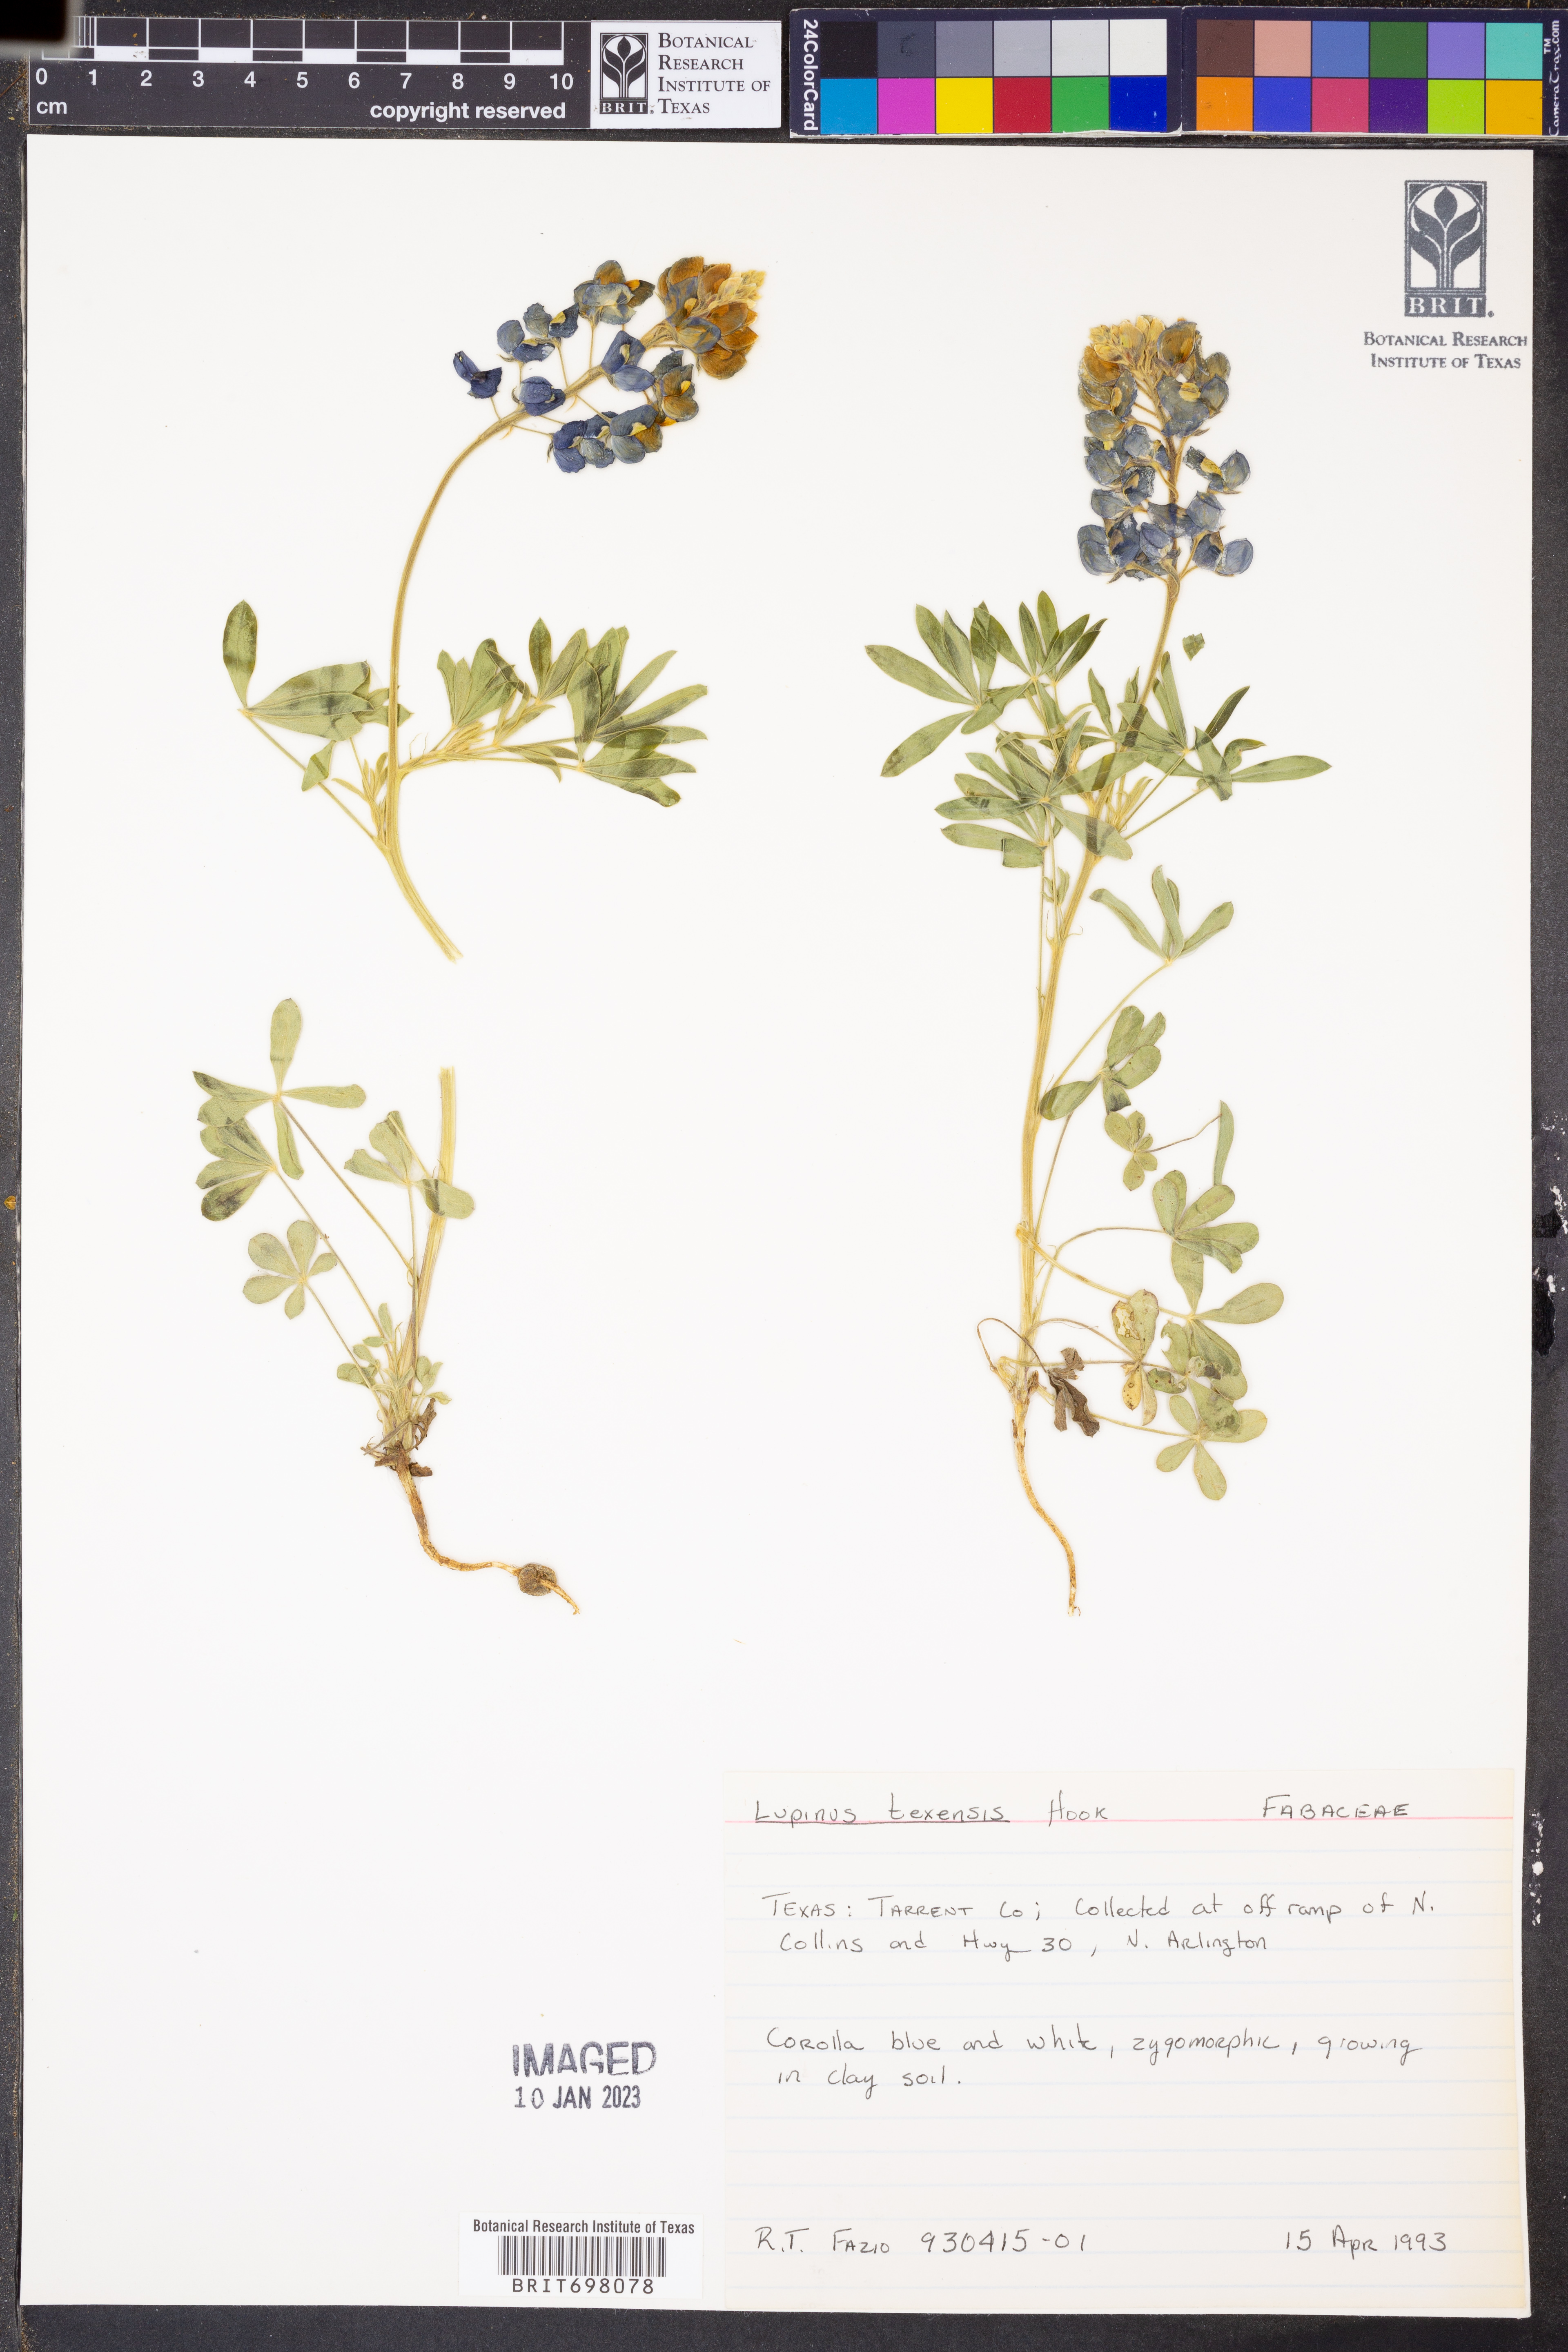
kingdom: Plantae
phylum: Tracheophyta
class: Magnoliopsida
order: Fabales
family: Fabaceae
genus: Lupinus
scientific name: Lupinus texensis
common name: Texas bluebonnet
